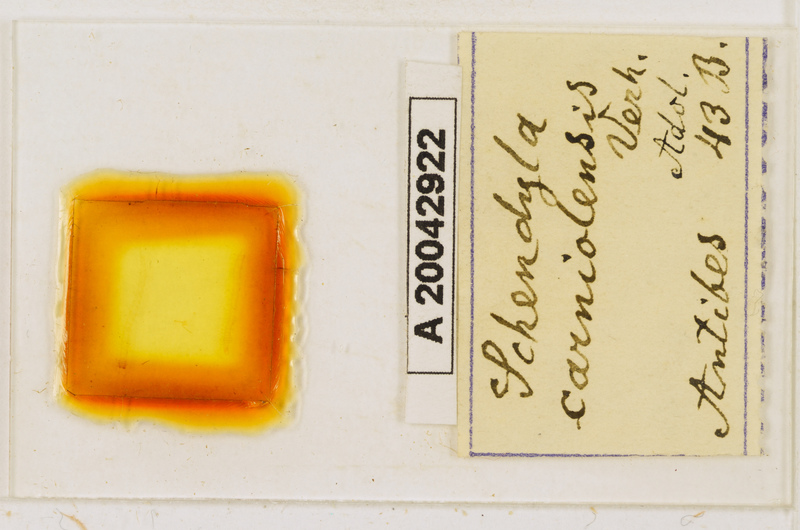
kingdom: Animalia
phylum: Arthropoda
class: Chilopoda
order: Geophilomorpha
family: Schendylidae
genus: Schendyla
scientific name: Schendyla carniolensis
